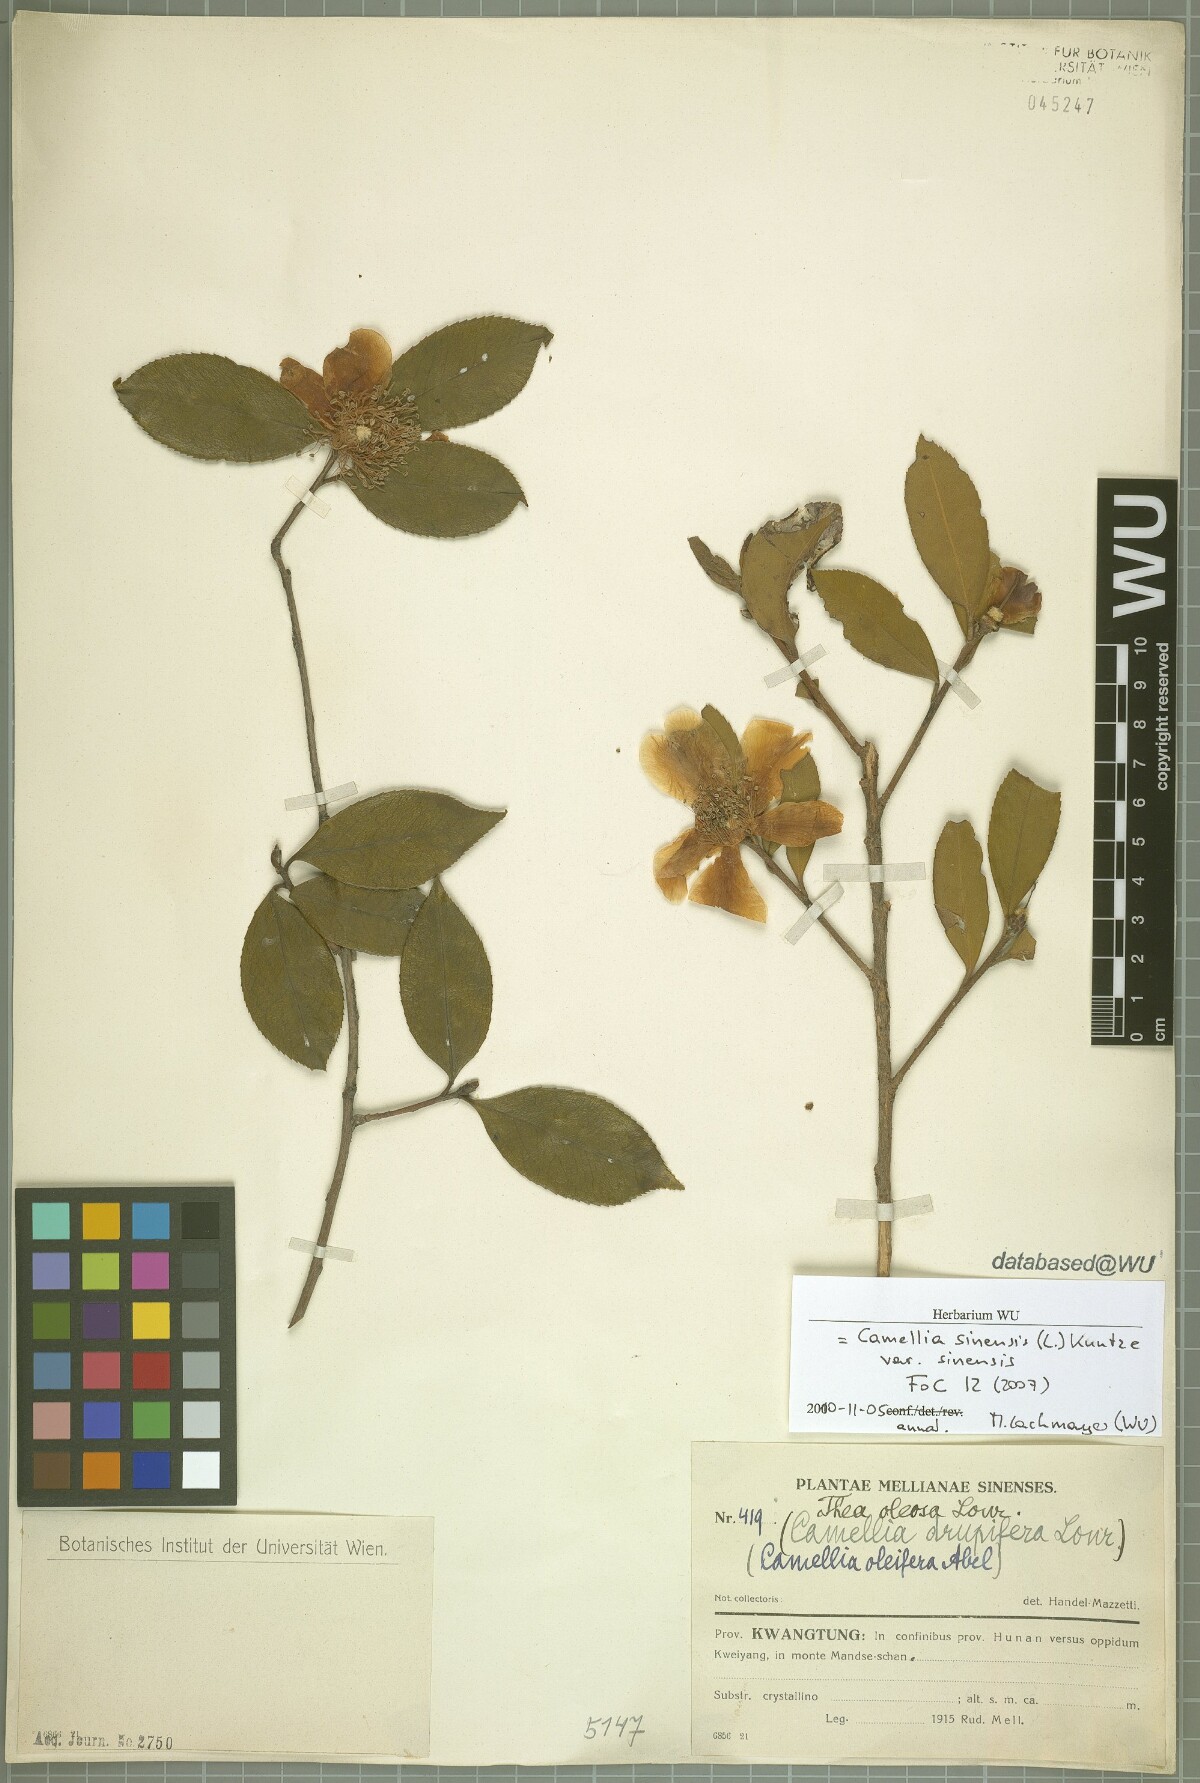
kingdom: Plantae
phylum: Tracheophyta
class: Magnoliopsida
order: Ericales
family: Theaceae
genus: Camellia
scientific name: Camellia sinensis
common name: Tea
